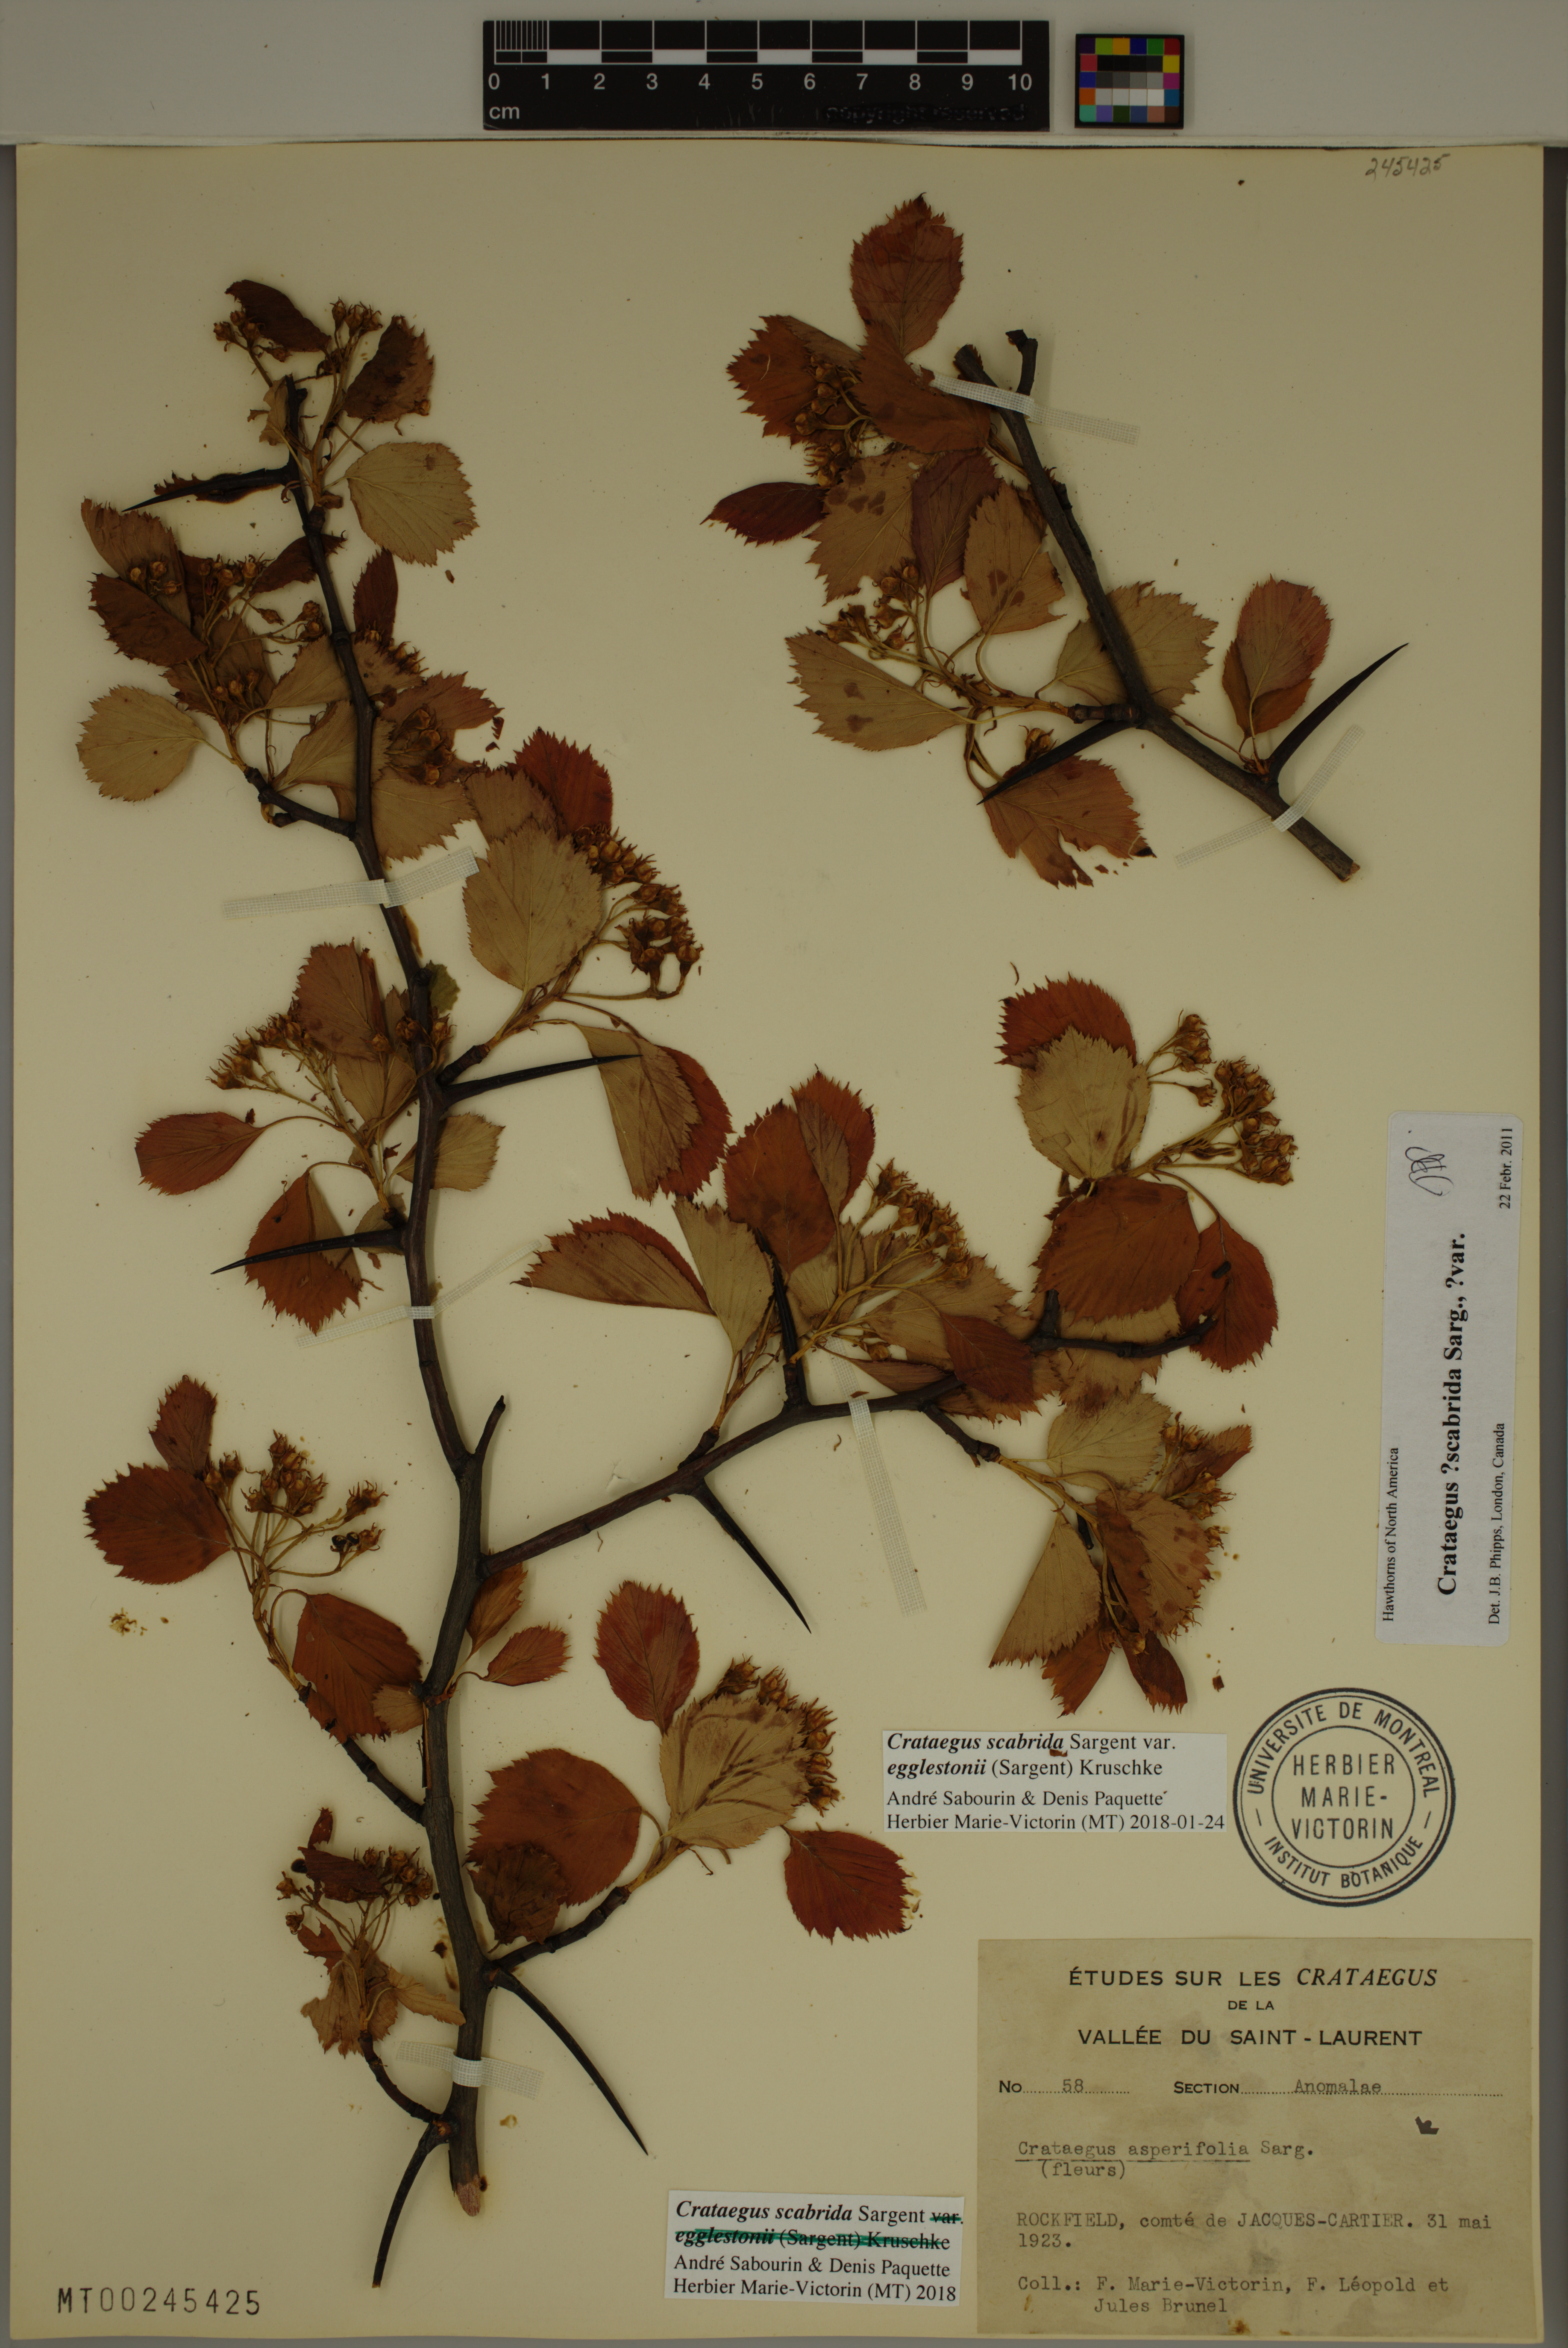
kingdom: Plantae
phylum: Tracheophyta
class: Magnoliopsida
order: Rosales
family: Rosaceae
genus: Crataegus
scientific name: Crataegus scabrida
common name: Rough hawthorn
